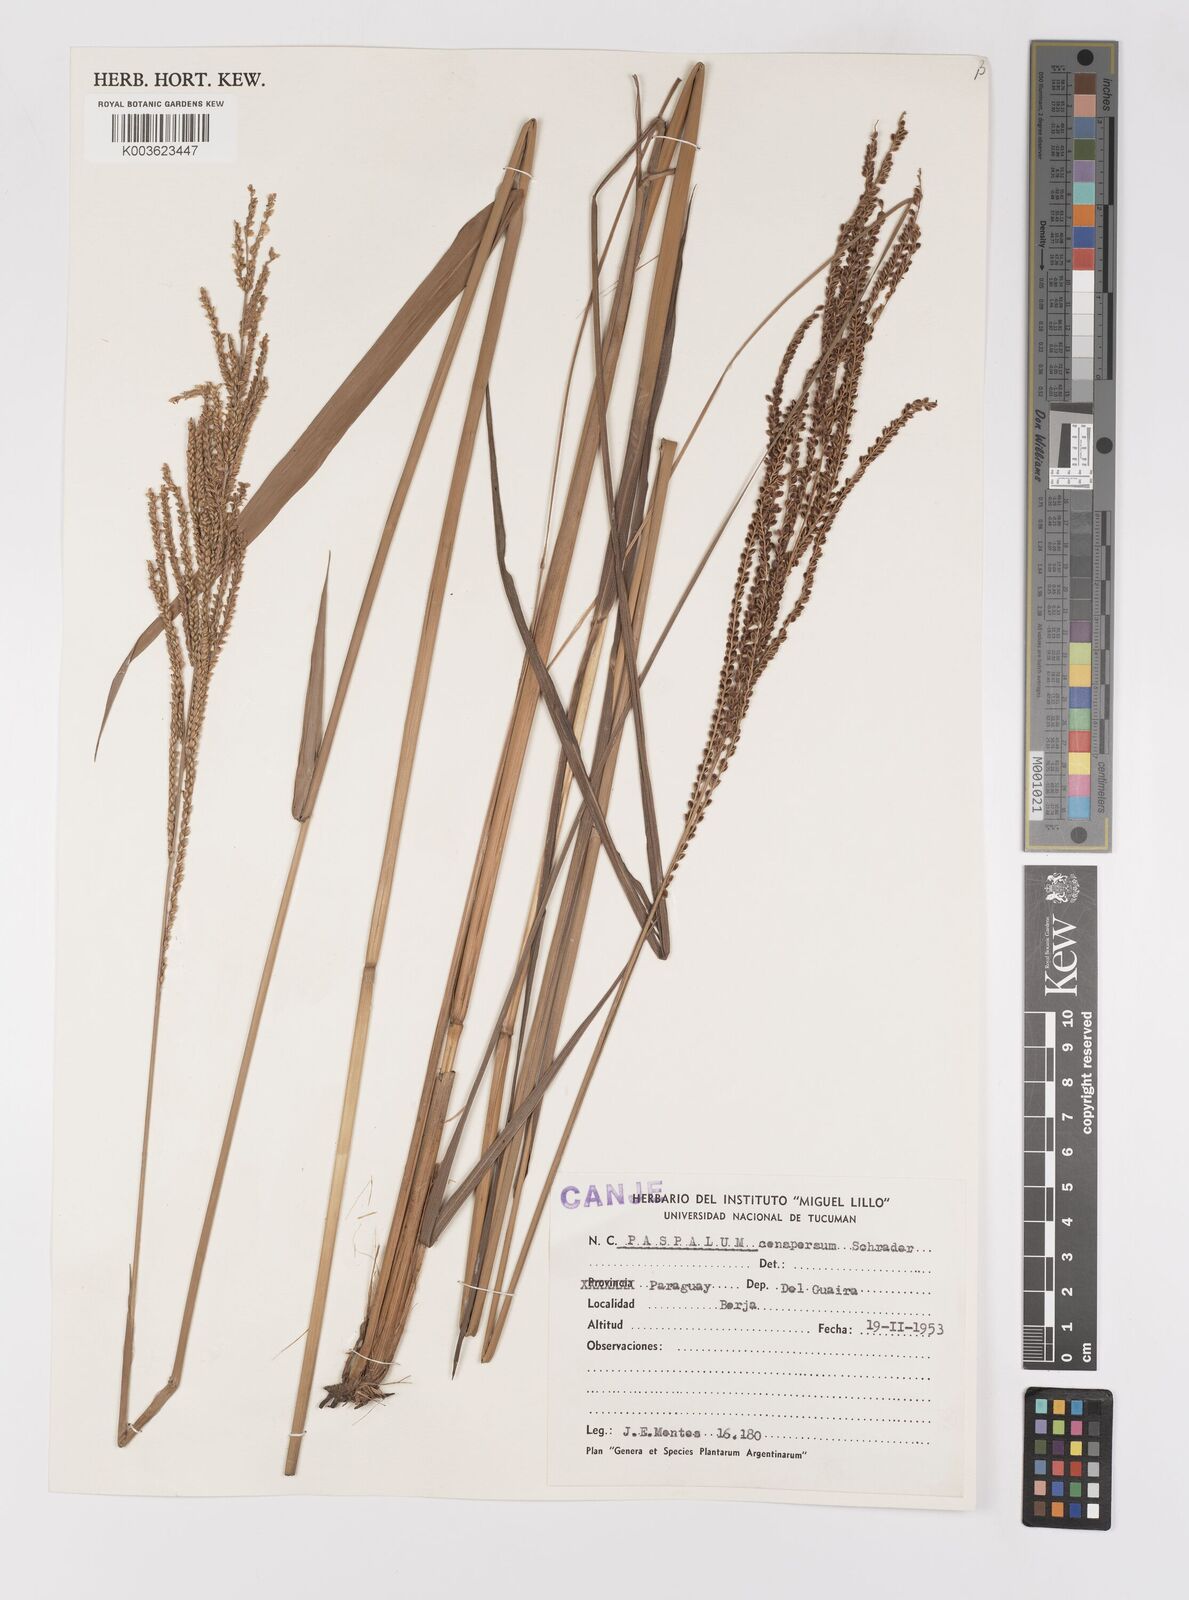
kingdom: Plantae
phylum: Tracheophyta
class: Liliopsida
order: Poales
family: Poaceae
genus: Paspalum
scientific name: Paspalum conspersum
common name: Scattered paspalum
